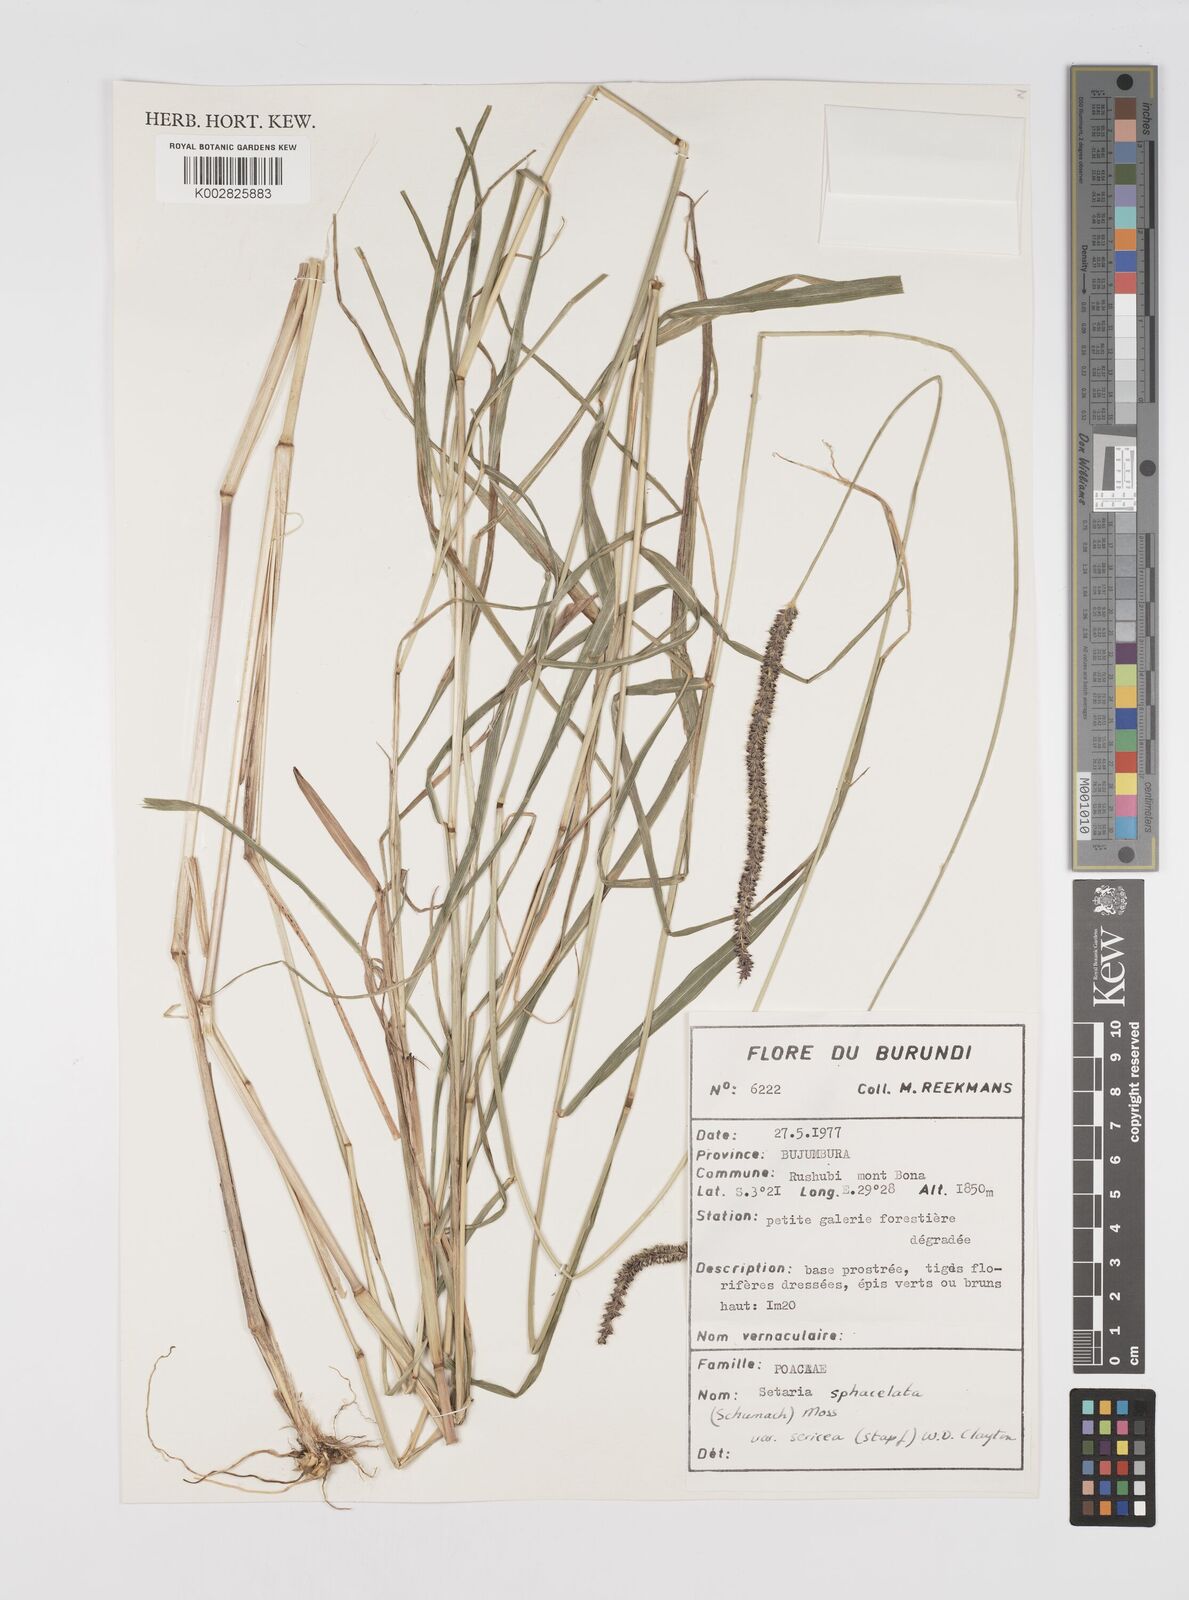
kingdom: Plantae
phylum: Tracheophyta
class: Liliopsida
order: Poales
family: Poaceae
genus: Setaria
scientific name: Setaria sphacelata
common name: African bristlegrass
